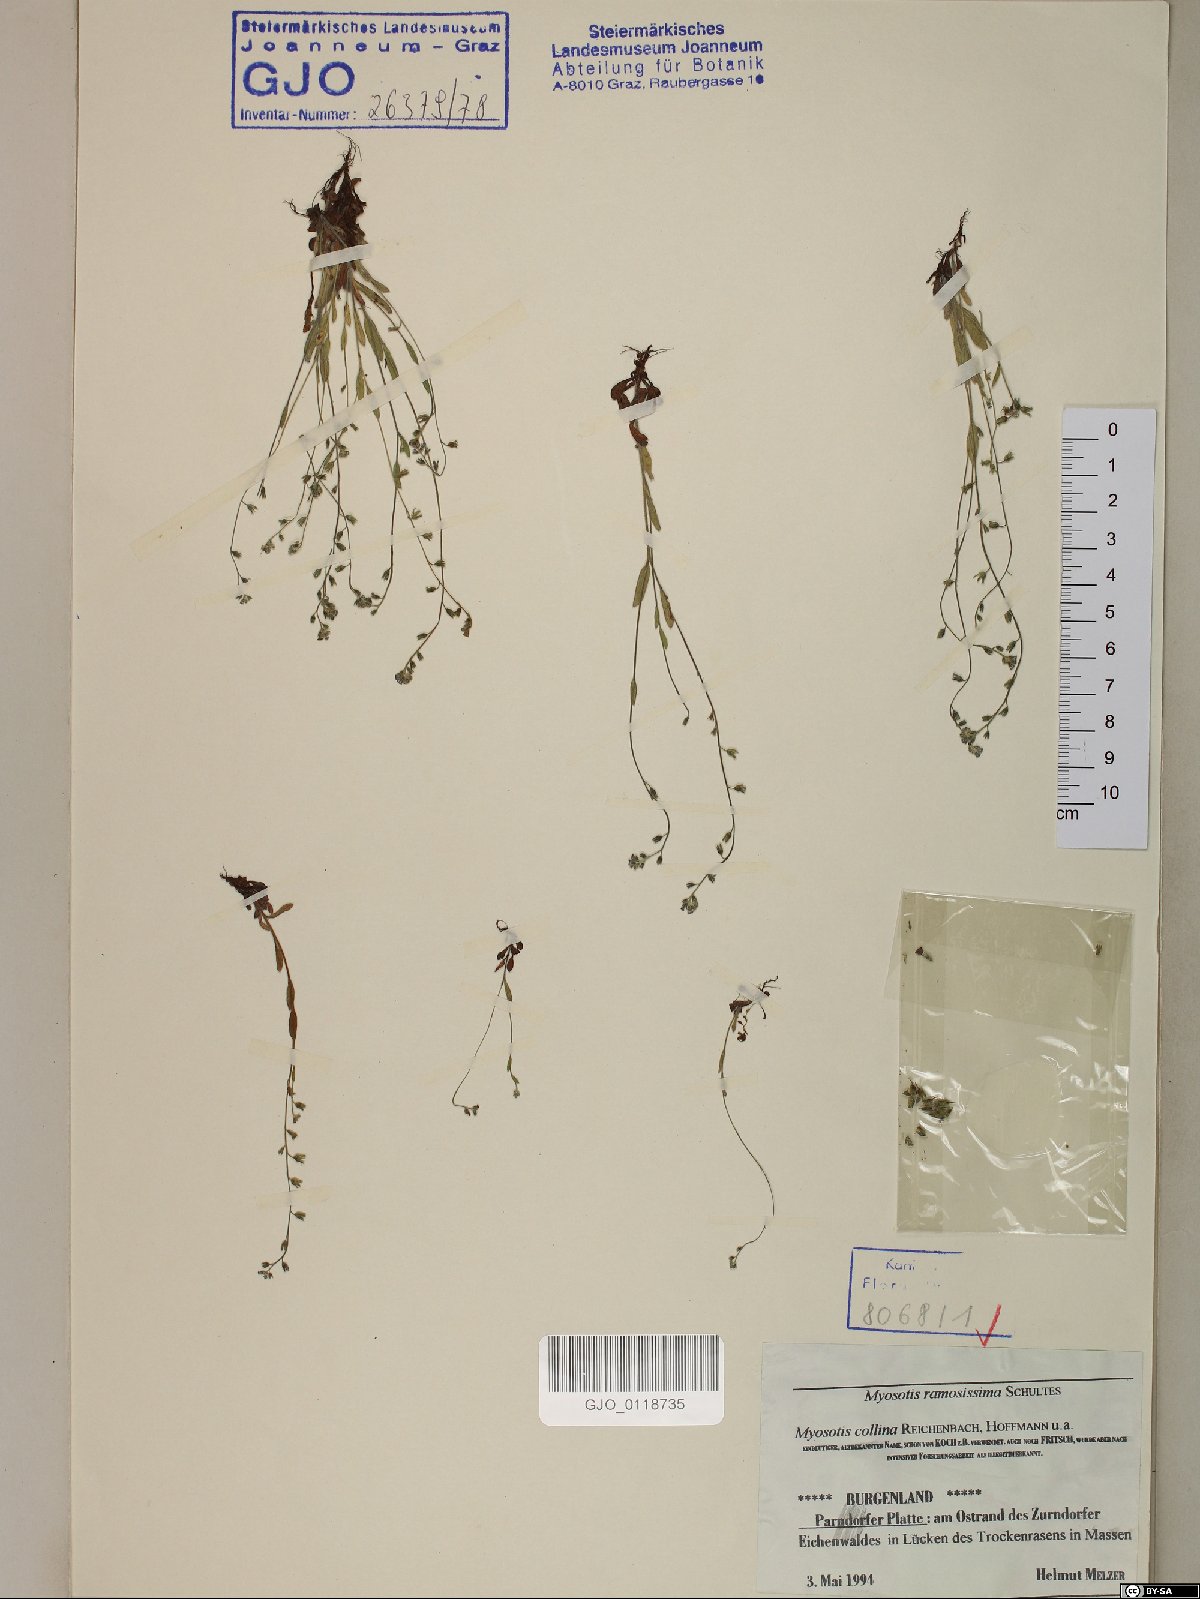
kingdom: Plantae
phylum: Tracheophyta
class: Magnoliopsida
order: Boraginales
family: Boraginaceae
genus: Myosotis
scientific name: Myosotis ramosissima
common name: Early forget-me-not
